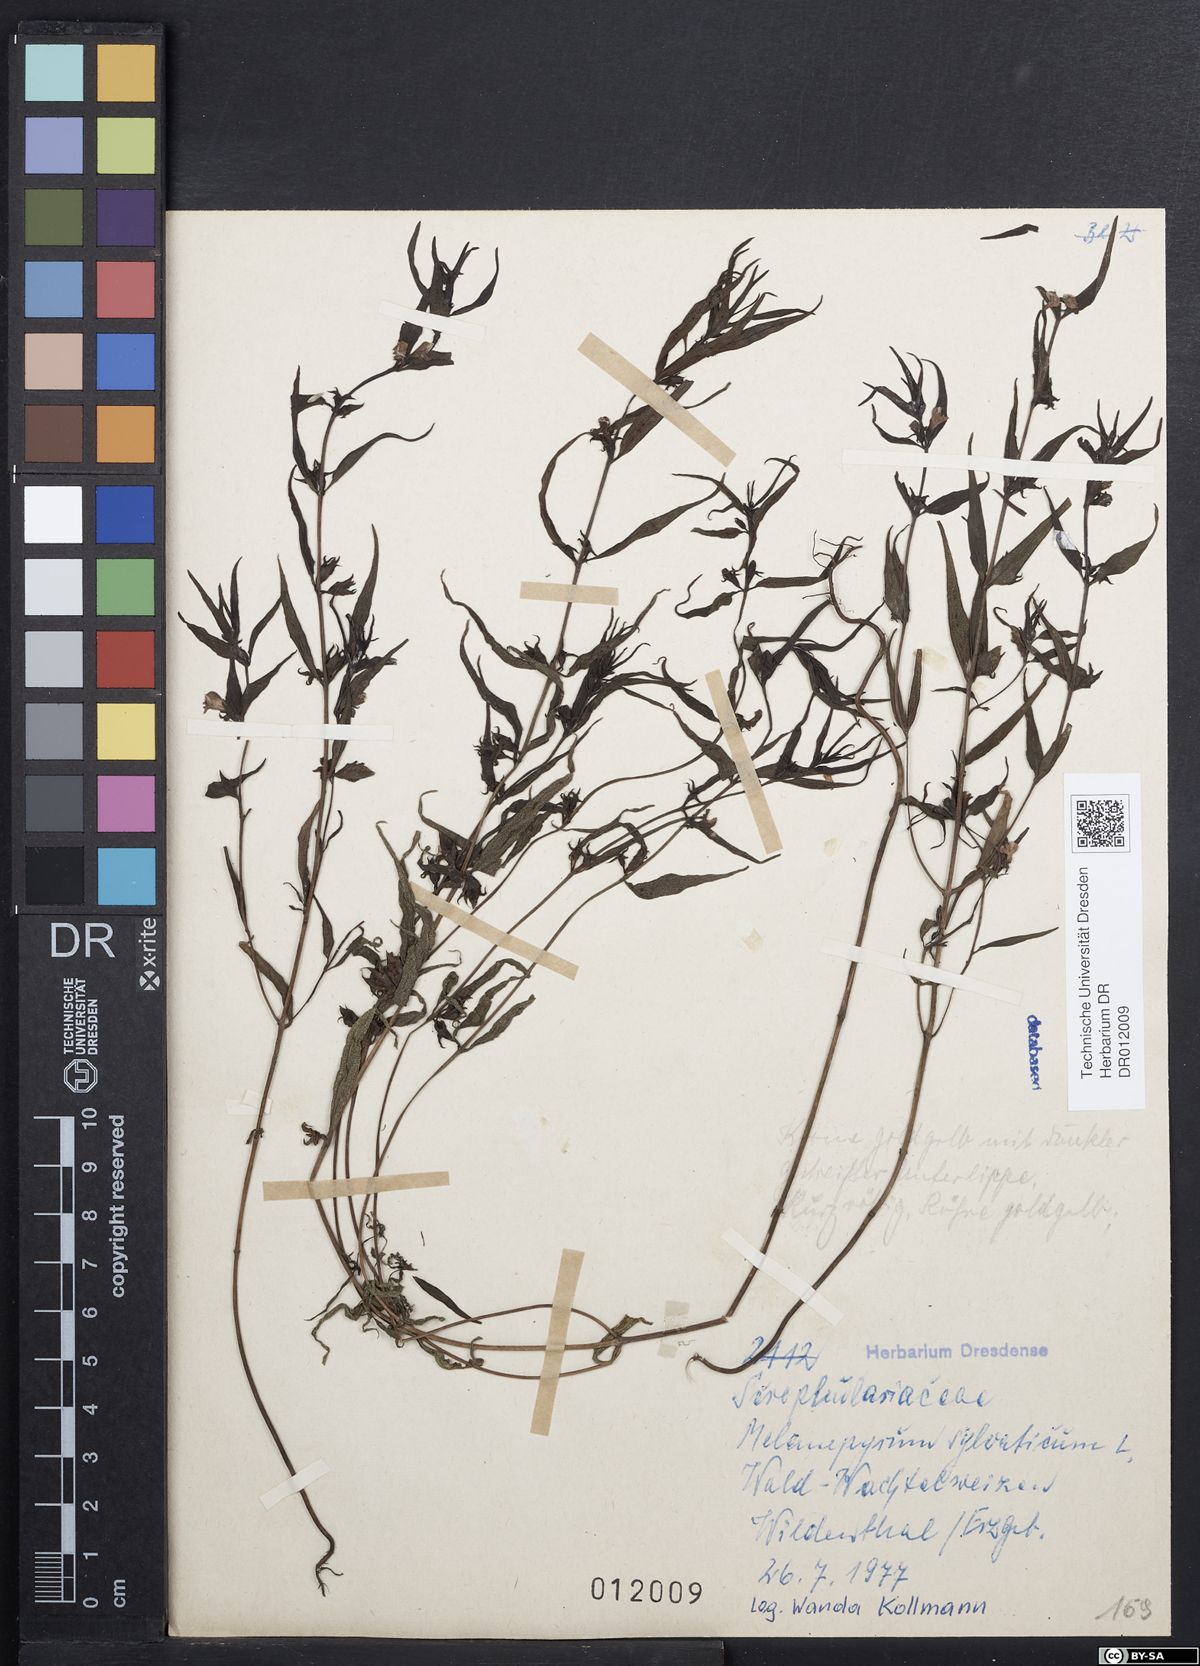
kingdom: Plantae
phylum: Tracheophyta
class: Magnoliopsida
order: Lamiales
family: Orobanchaceae
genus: Melampyrum
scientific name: Melampyrum sylvaticum
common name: Small cow-wheat
